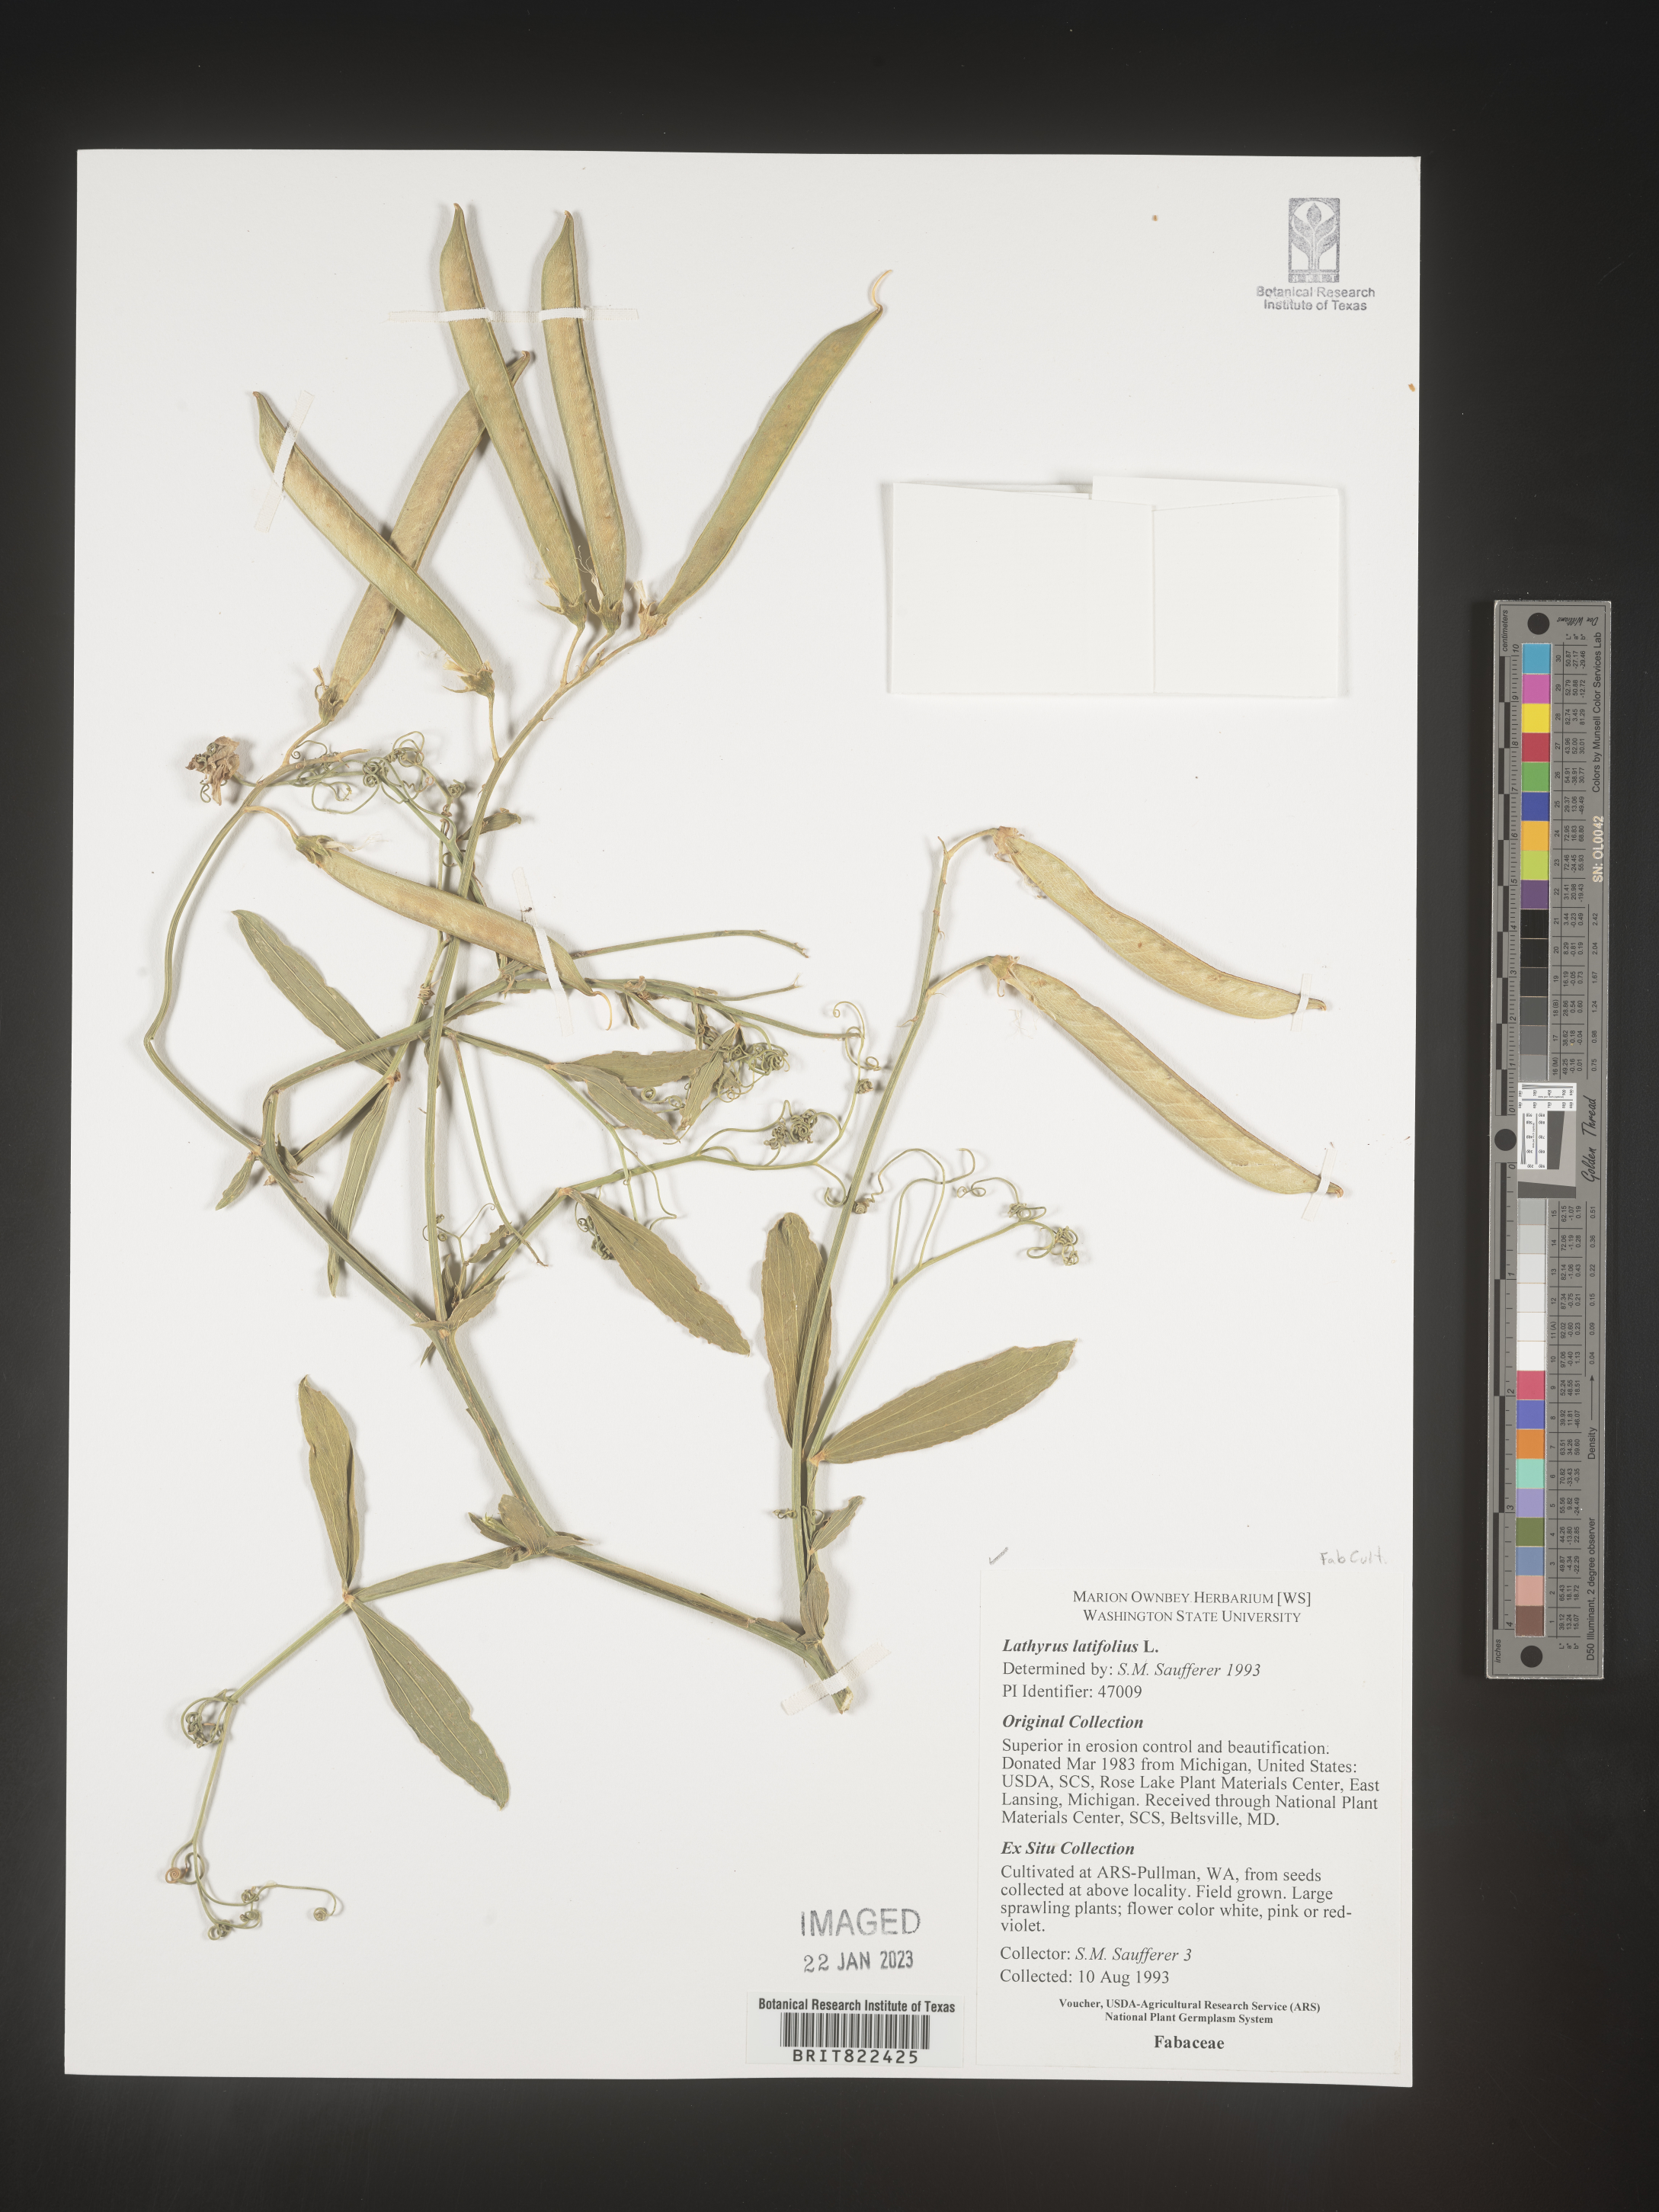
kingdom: Plantae
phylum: Tracheophyta
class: Magnoliopsida
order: Fabales
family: Fabaceae
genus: Lathyrus
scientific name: Lathyrus
